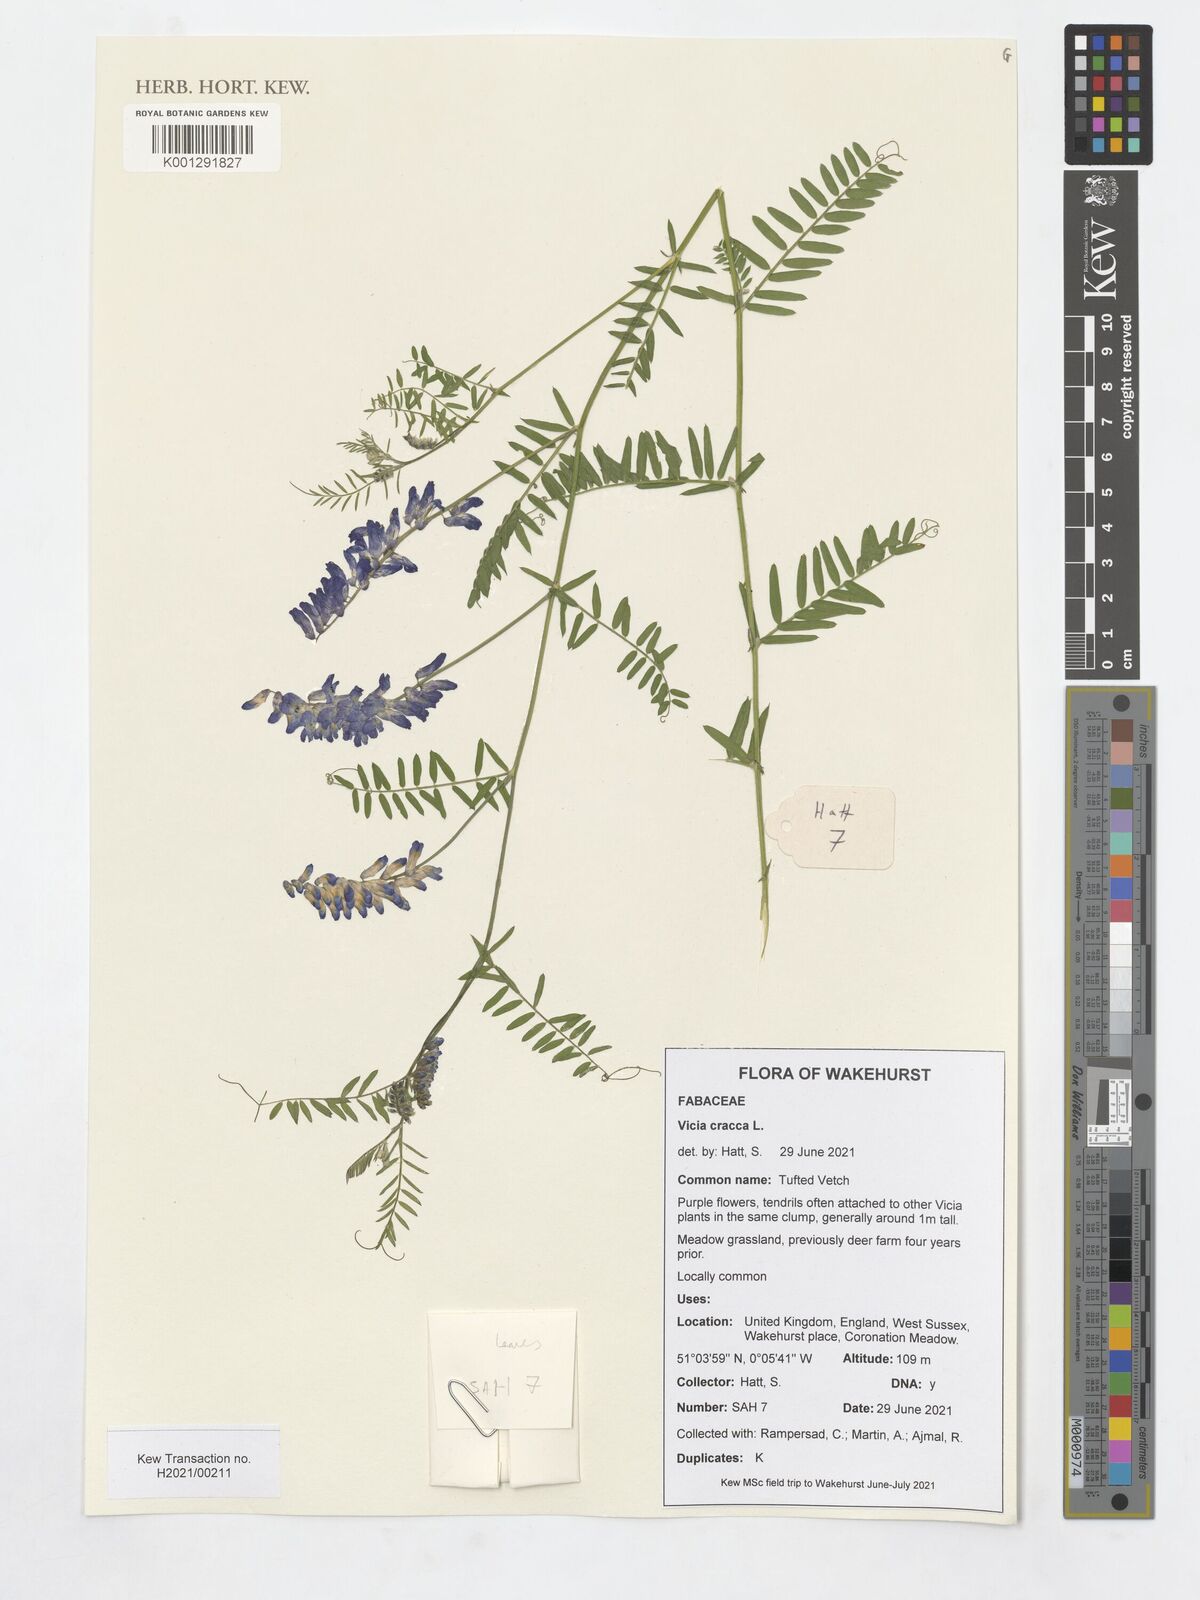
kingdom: Plantae
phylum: Tracheophyta
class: Magnoliopsida
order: Fabales
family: Fabaceae
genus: Vicia
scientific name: Vicia cracca
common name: Bird vetch
